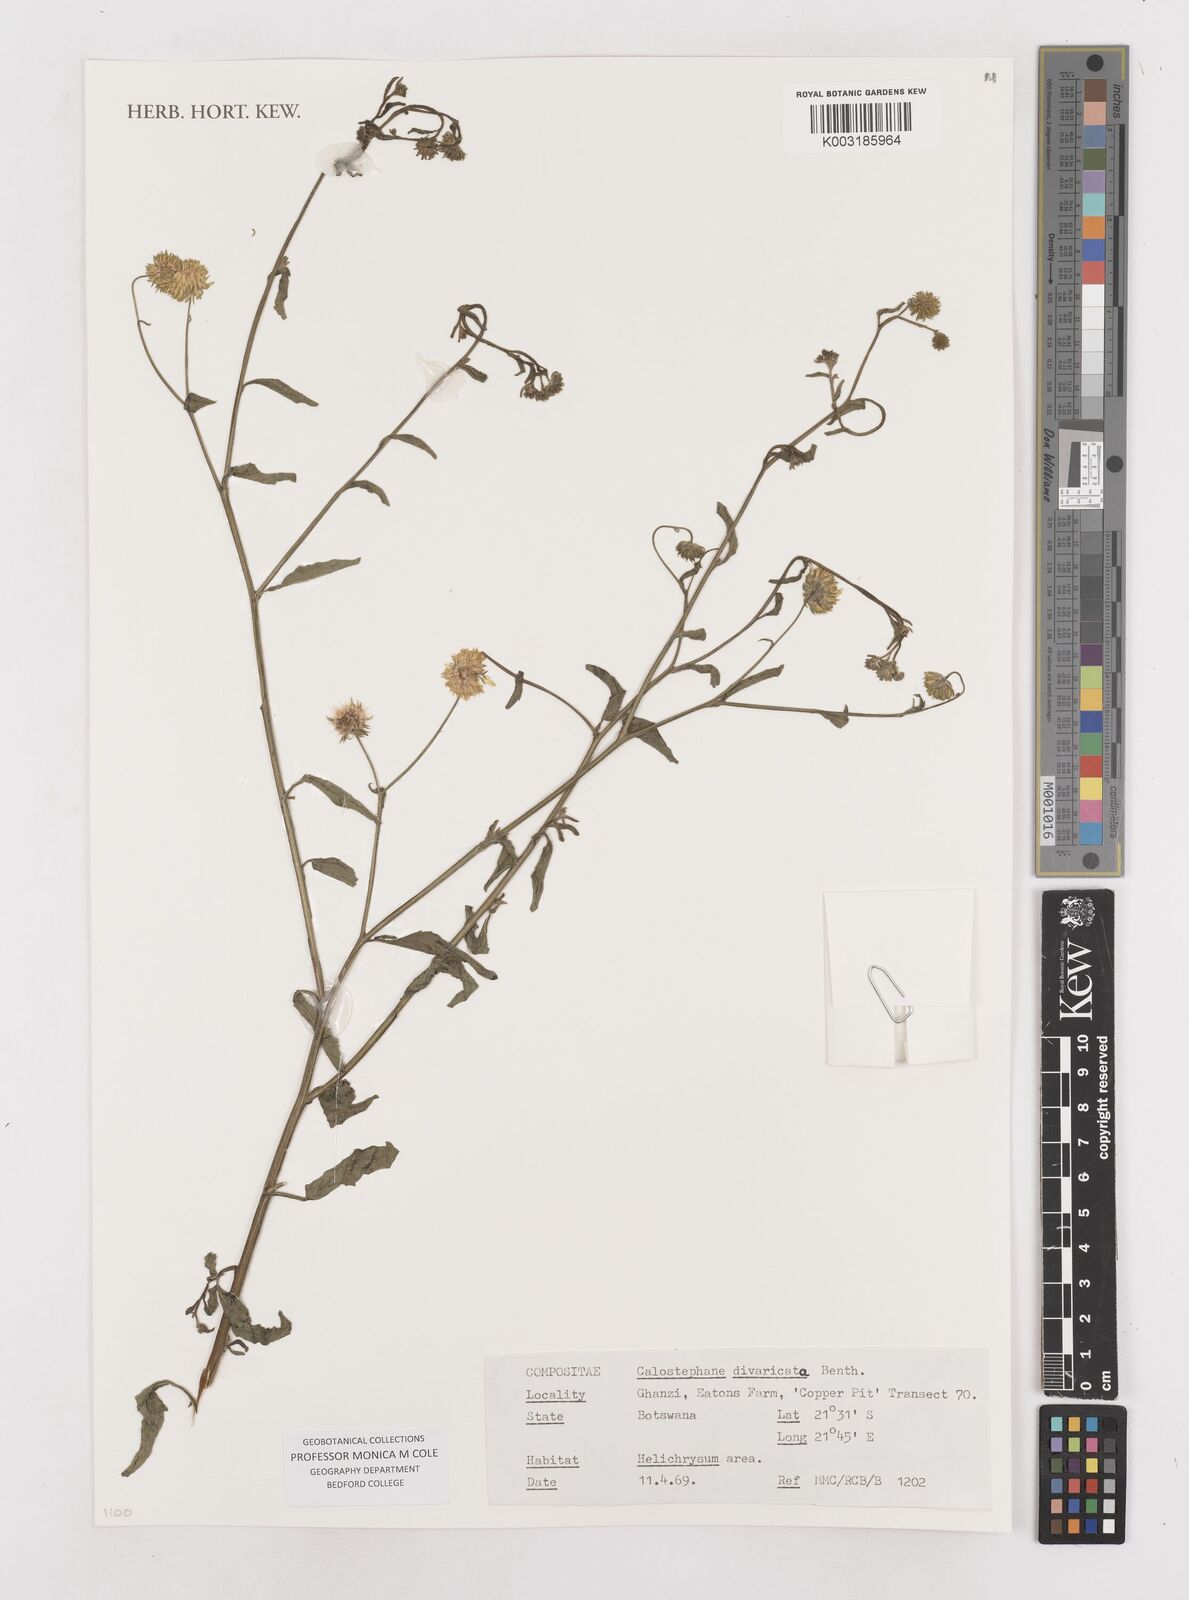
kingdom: Plantae
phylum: Tracheophyta
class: Magnoliopsida
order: Asterales
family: Asteraceae
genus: Calostephane
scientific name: Calostephane divaricata
